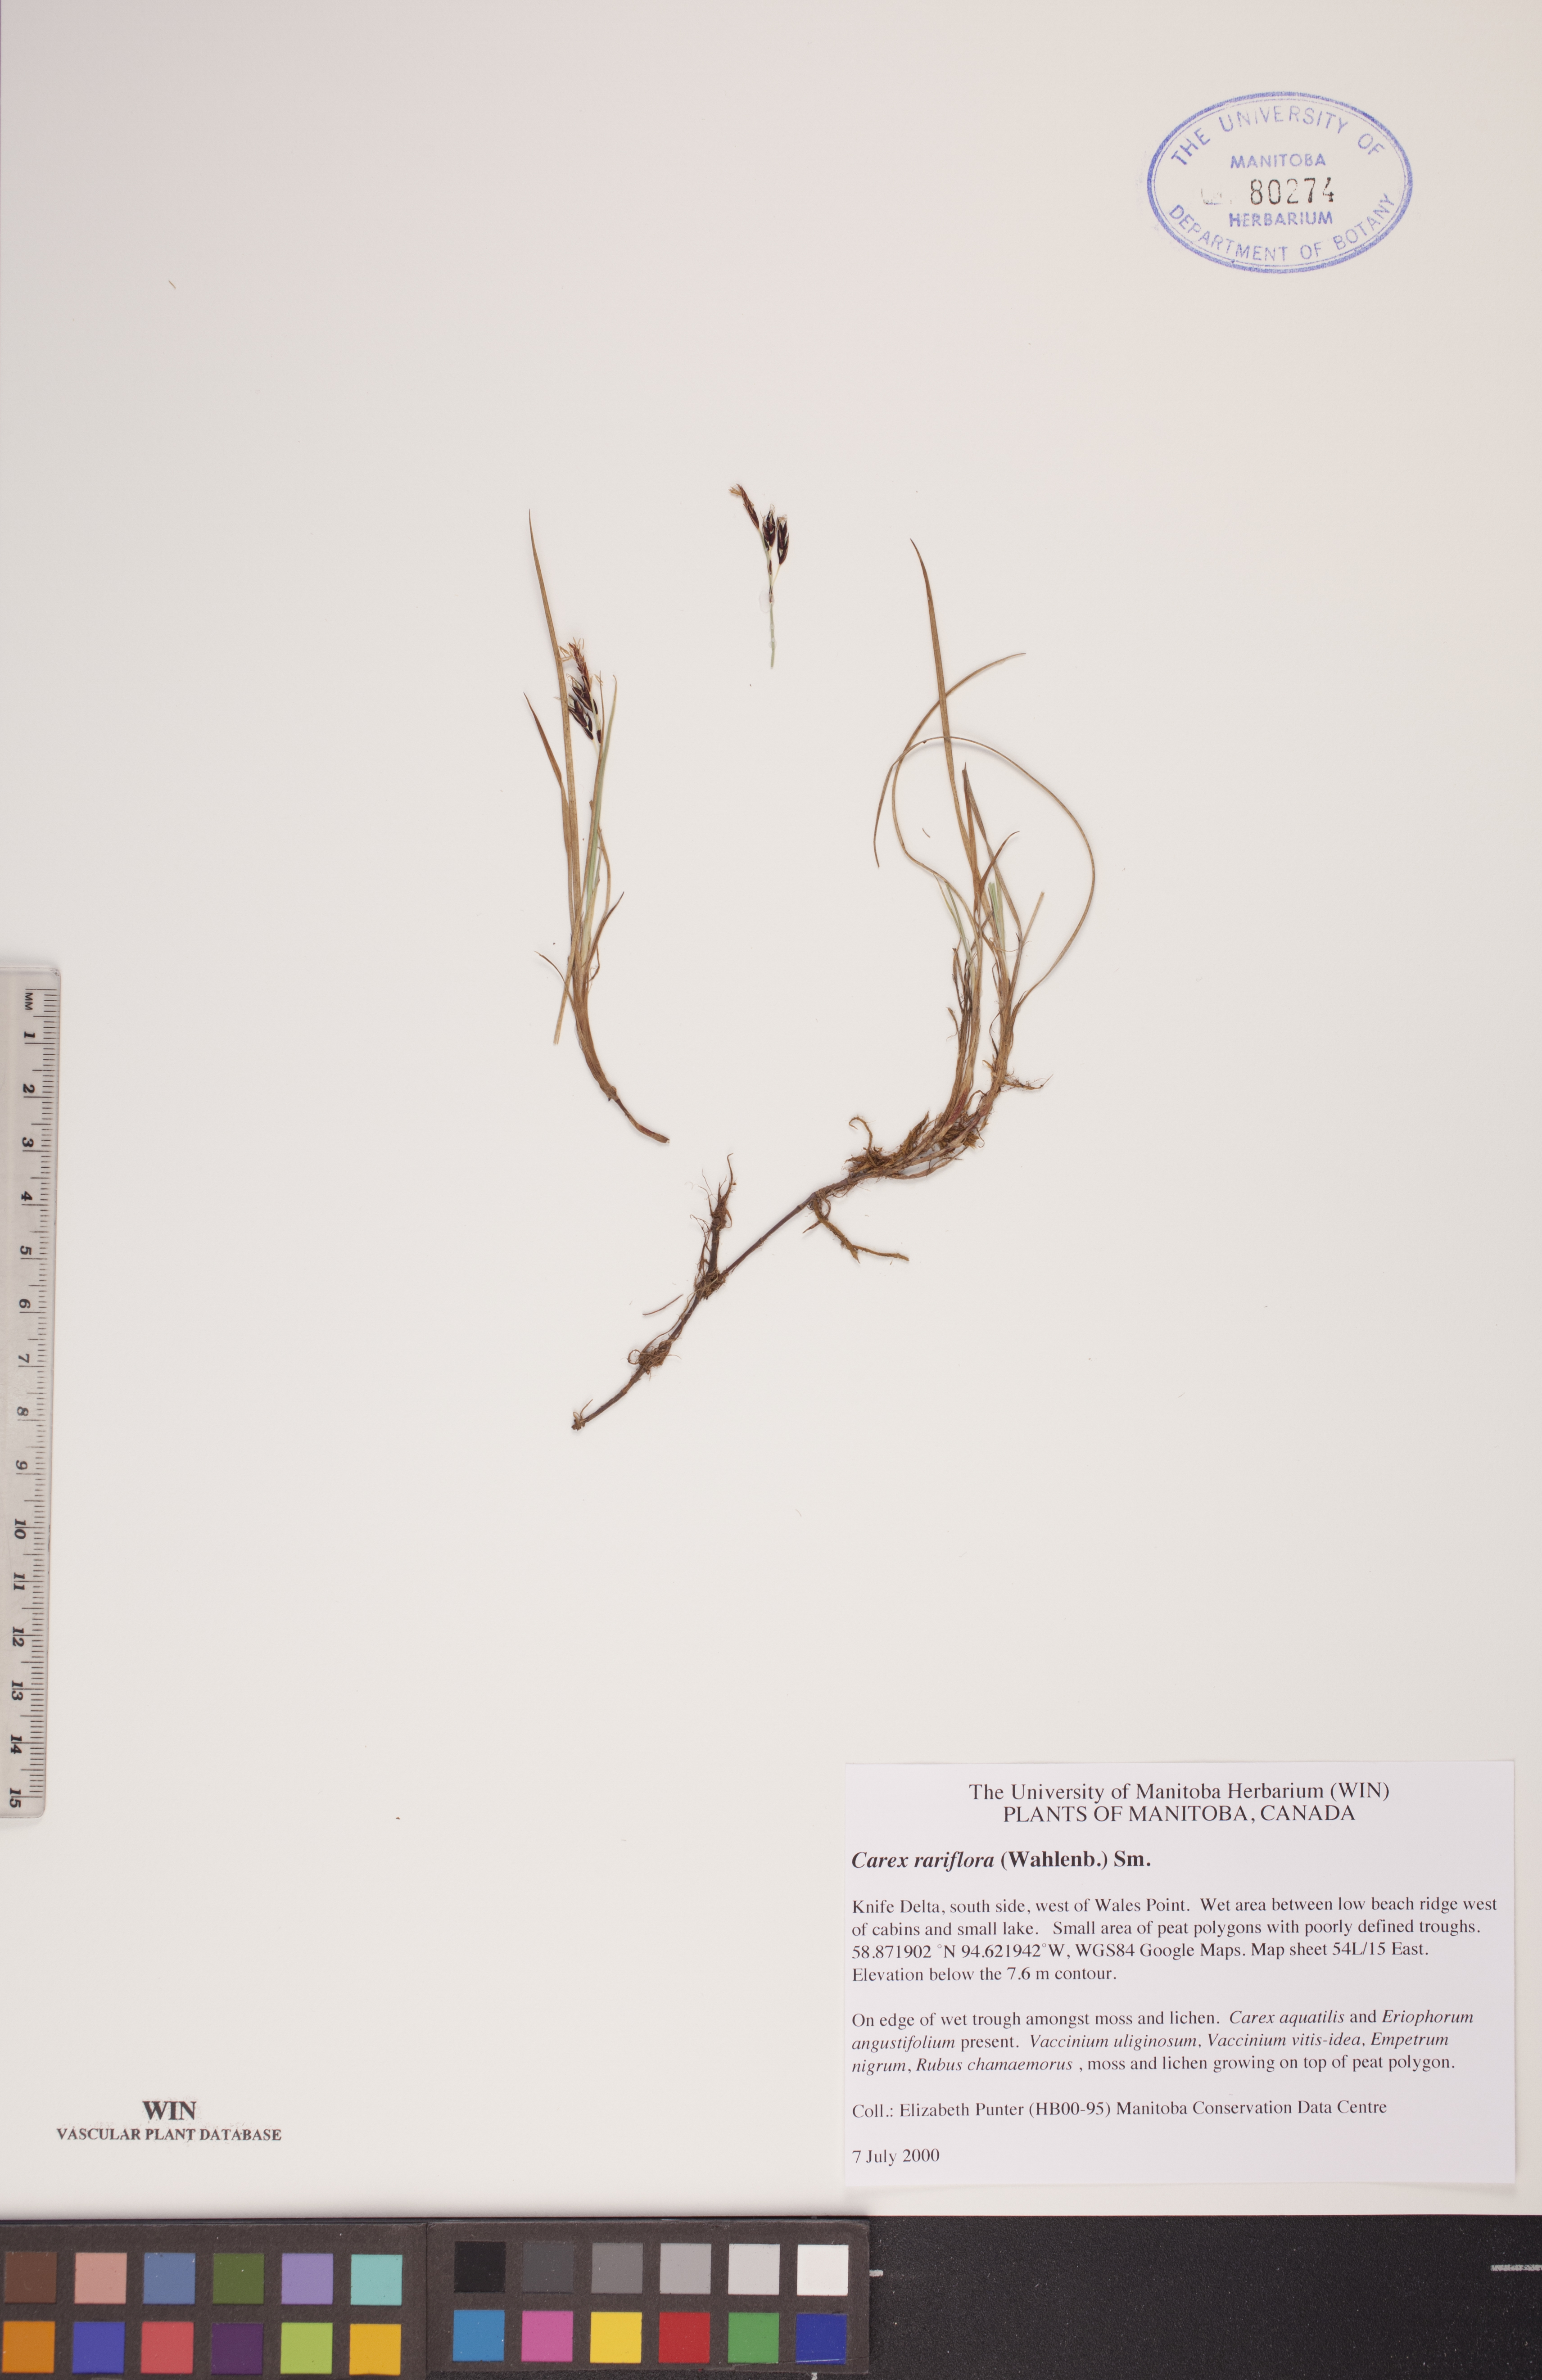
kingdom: Plantae
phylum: Tracheophyta
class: Liliopsida
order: Poales
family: Cyperaceae
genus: Carex
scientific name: Carex rariflora
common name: Loose-flowered alpine sedge
